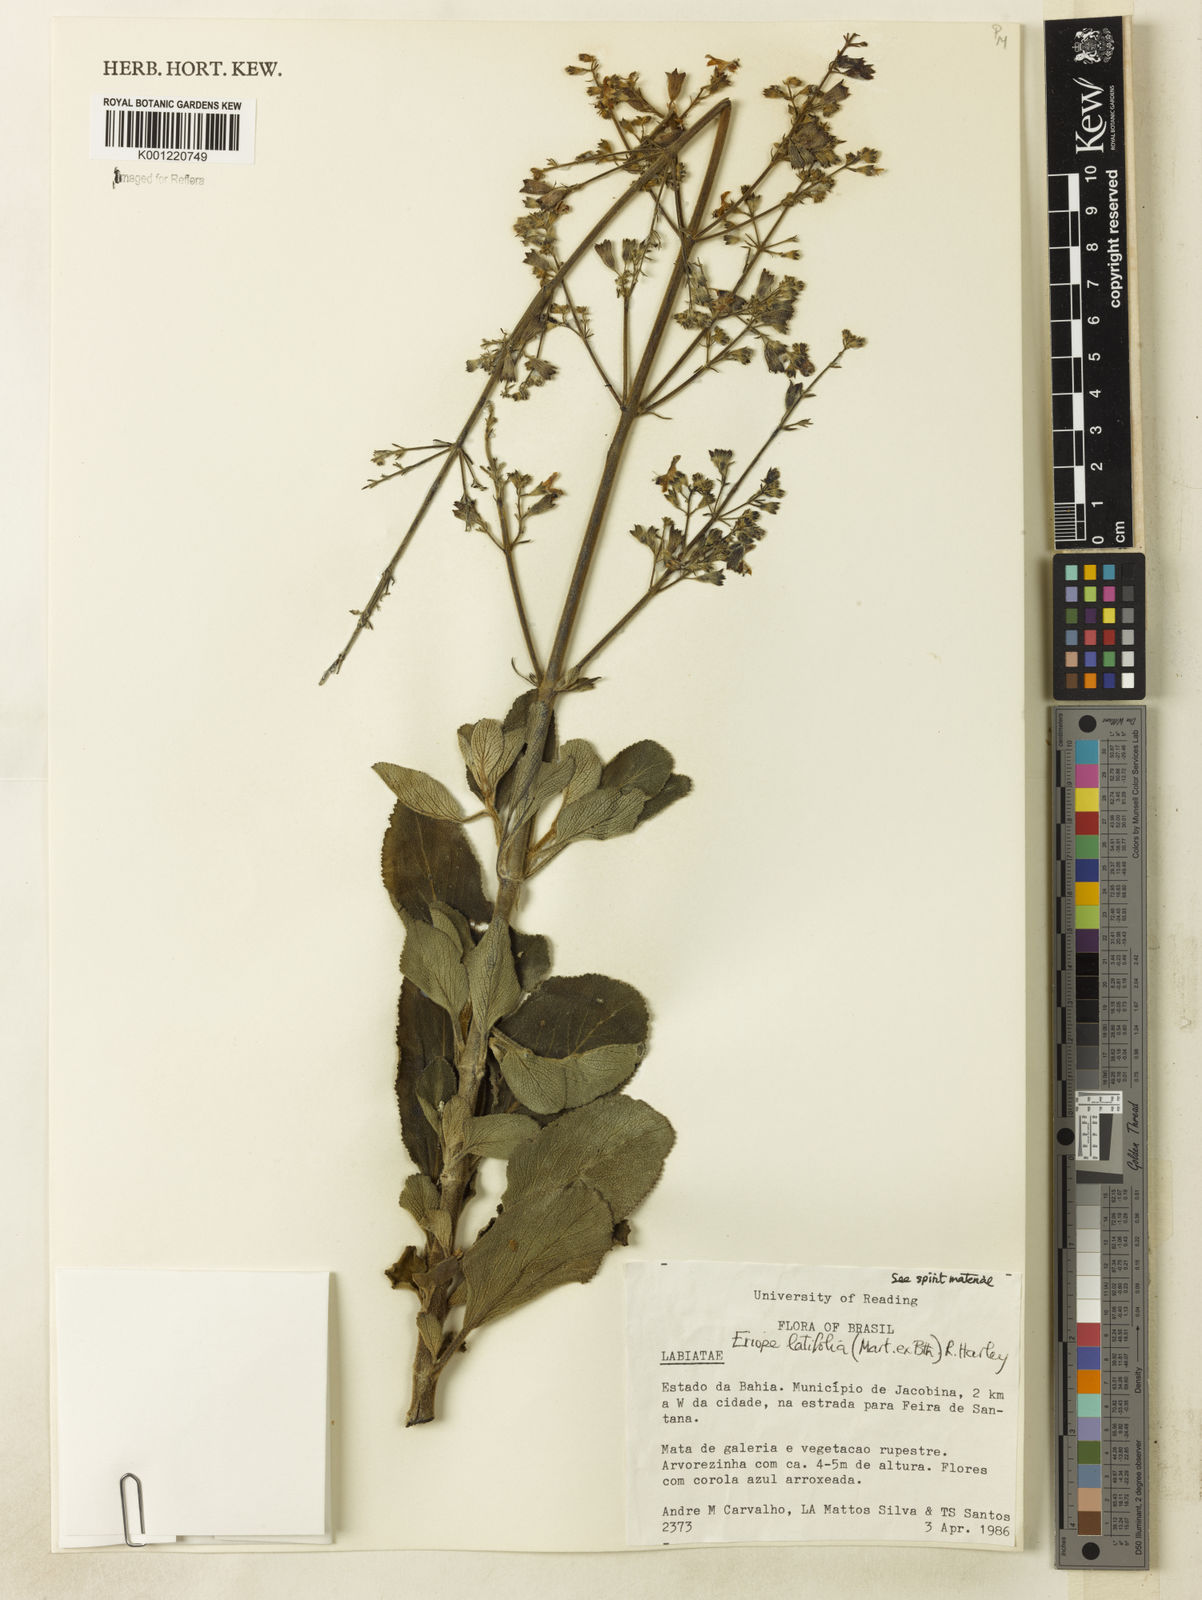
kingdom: Plantae
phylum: Tracheophyta
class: Magnoliopsida
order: Lamiales
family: Lamiaceae
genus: Eriope
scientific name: Eriope latifolia
